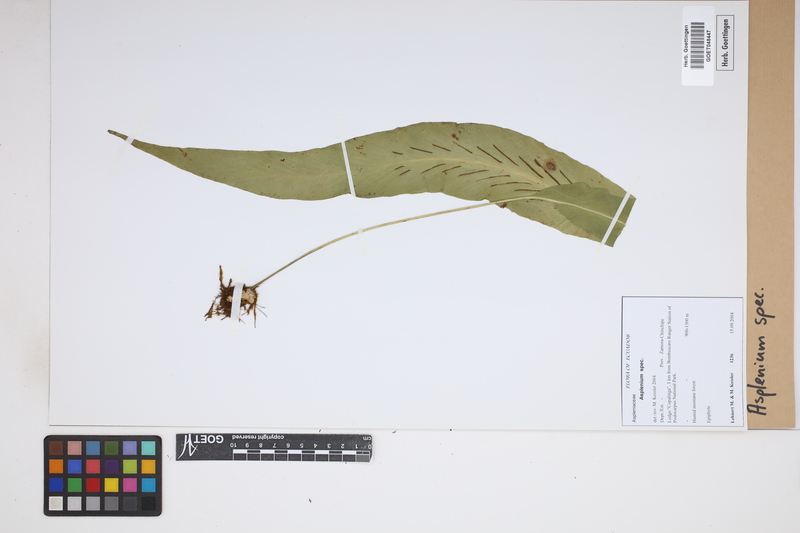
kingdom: Plantae
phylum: Tracheophyta
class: Polypodiopsida
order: Polypodiales
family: Aspleniaceae
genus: Asplenium
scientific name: Asplenium
